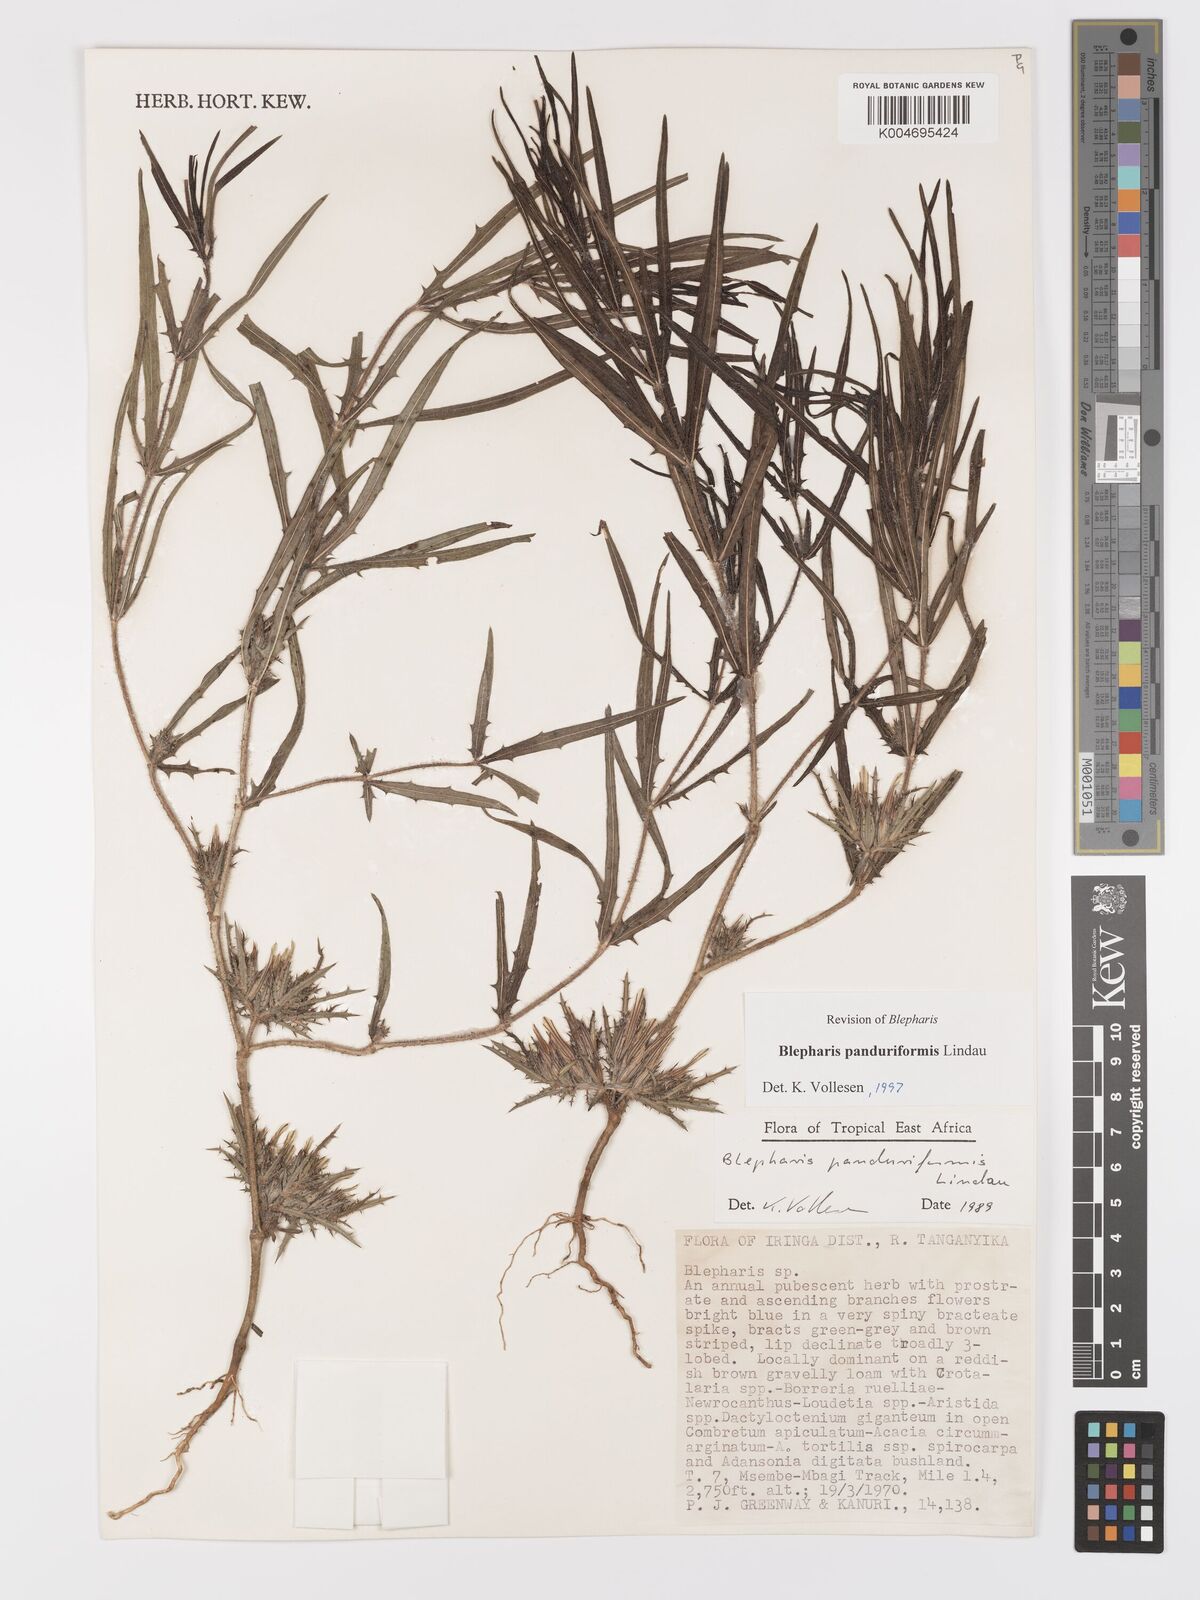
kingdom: Plantae
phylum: Tracheophyta
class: Magnoliopsida
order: Lamiales
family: Acanthaceae
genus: Blepharis
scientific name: Blepharis panduriformis
